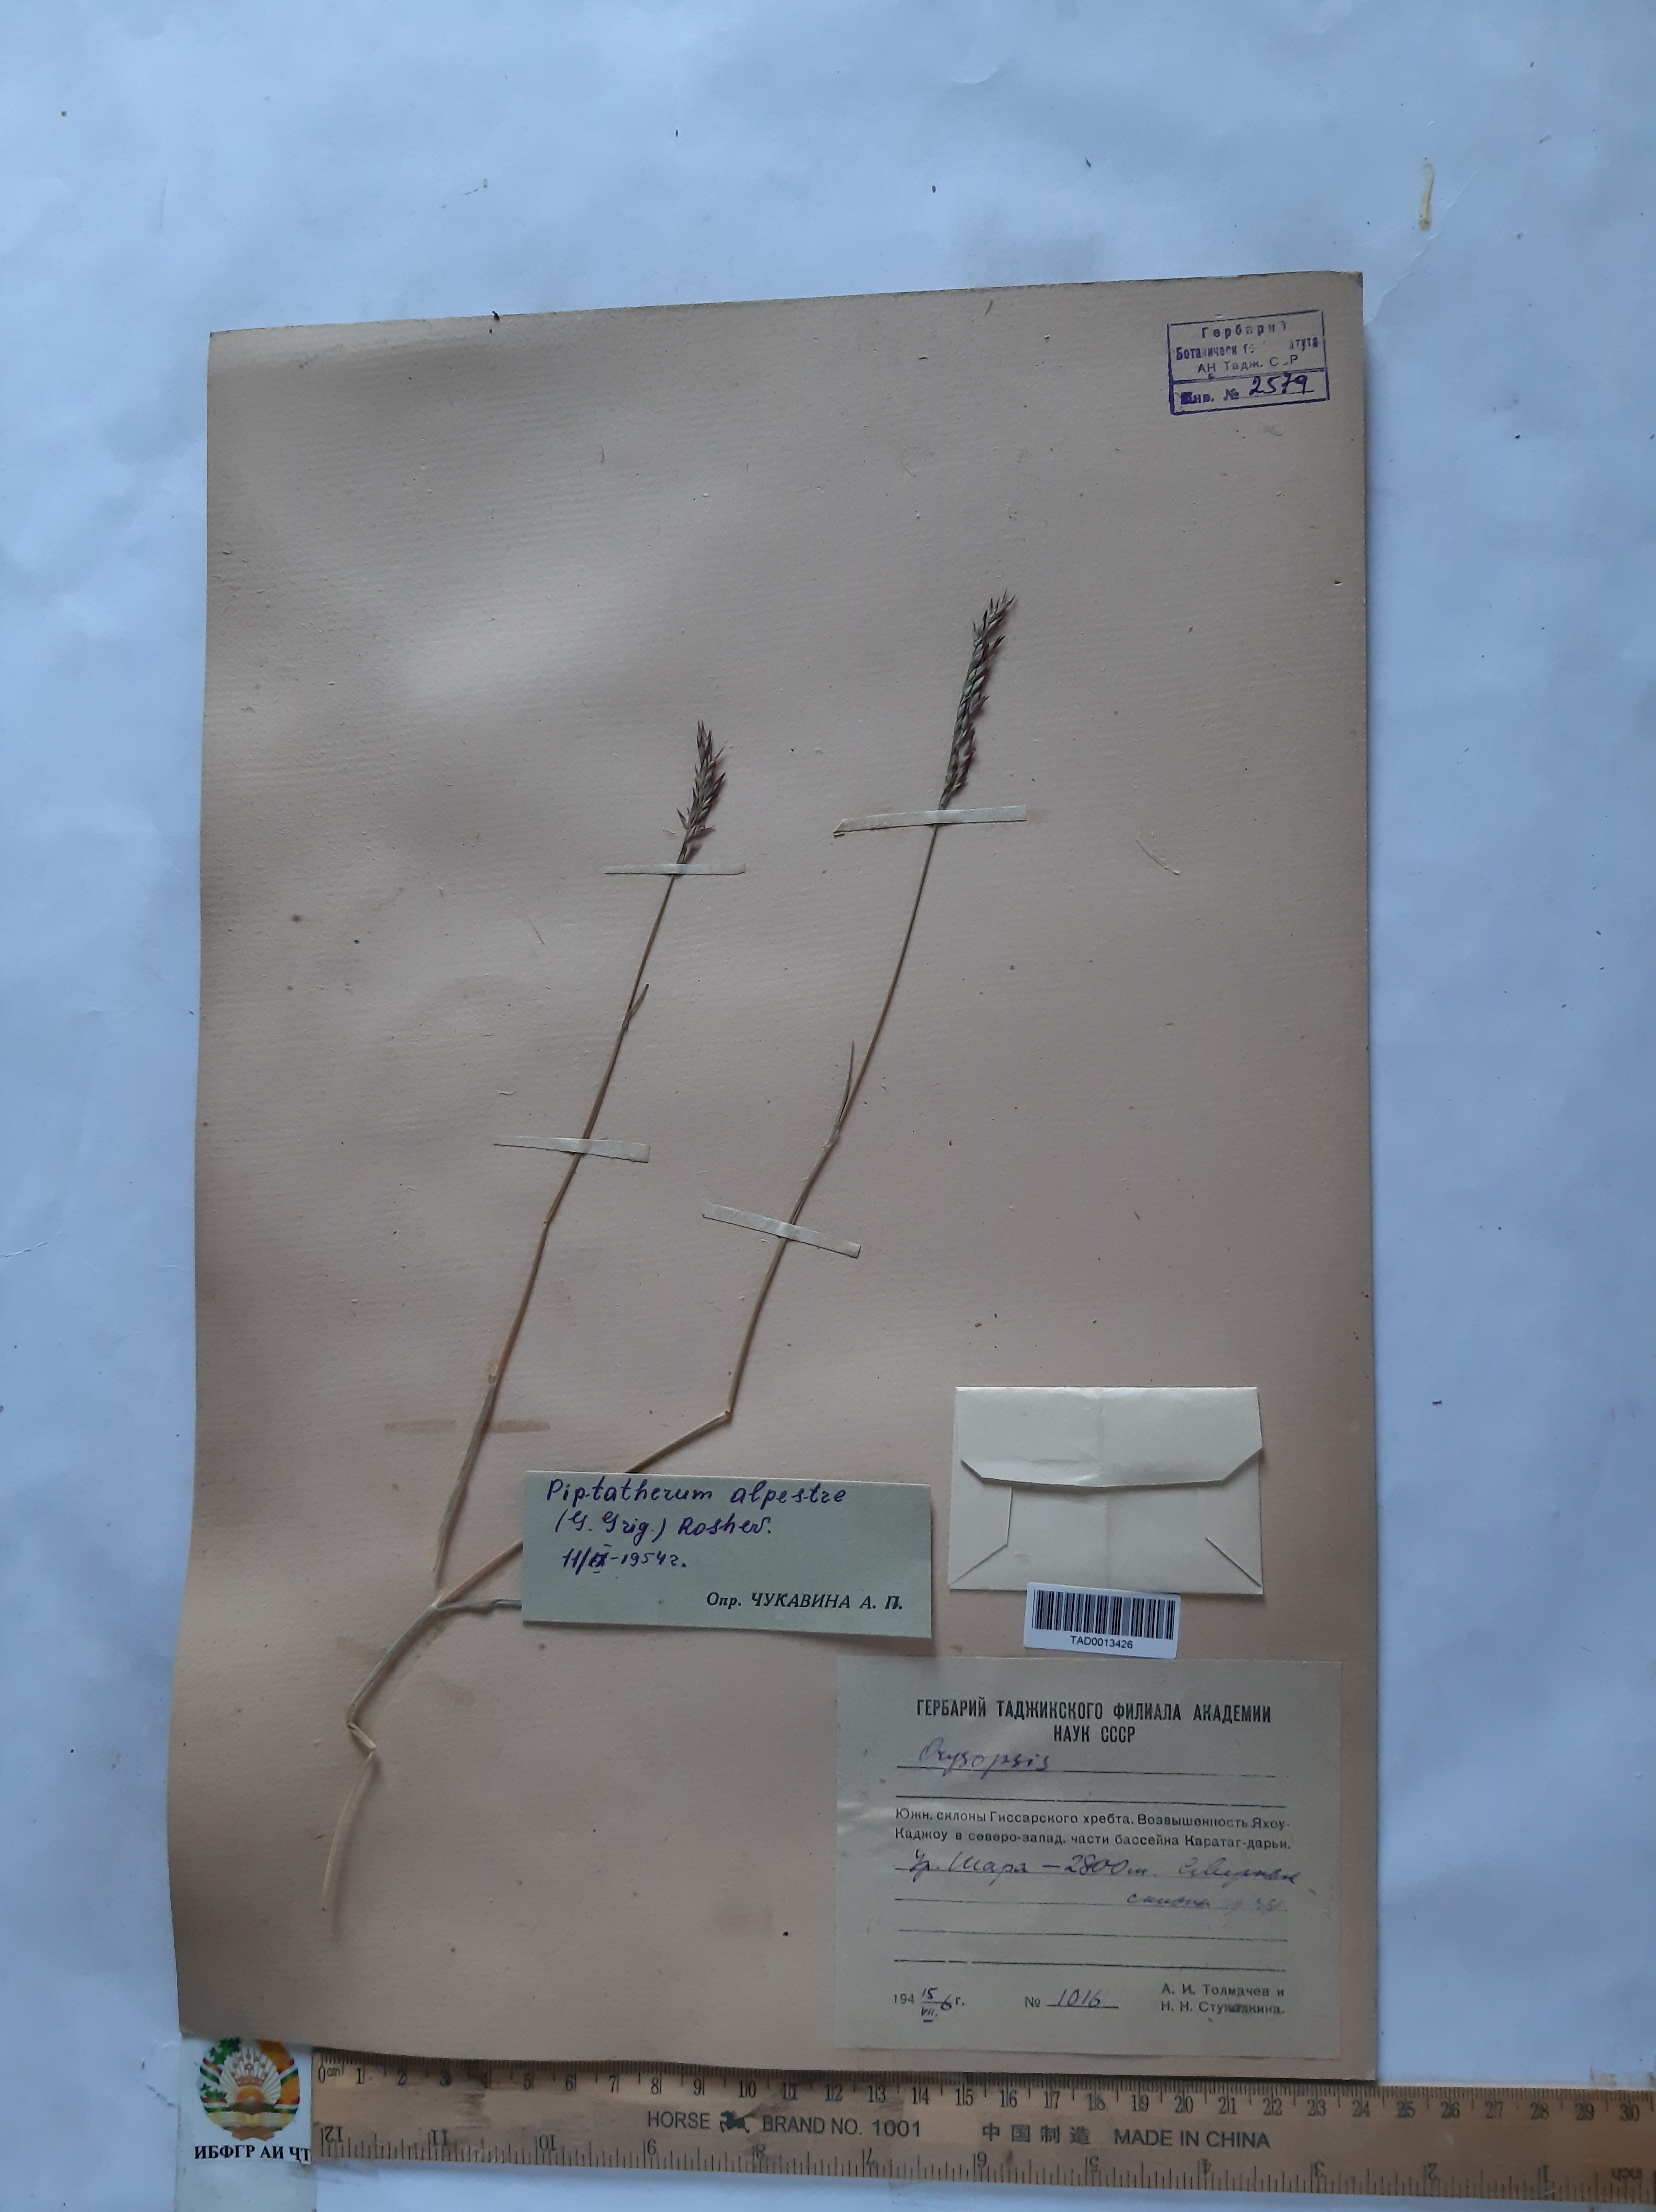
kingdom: Plantae
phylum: Tracheophyta
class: Liliopsida
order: Poales
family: Poaceae
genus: Piptatherum
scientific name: Piptatherum alpestre
